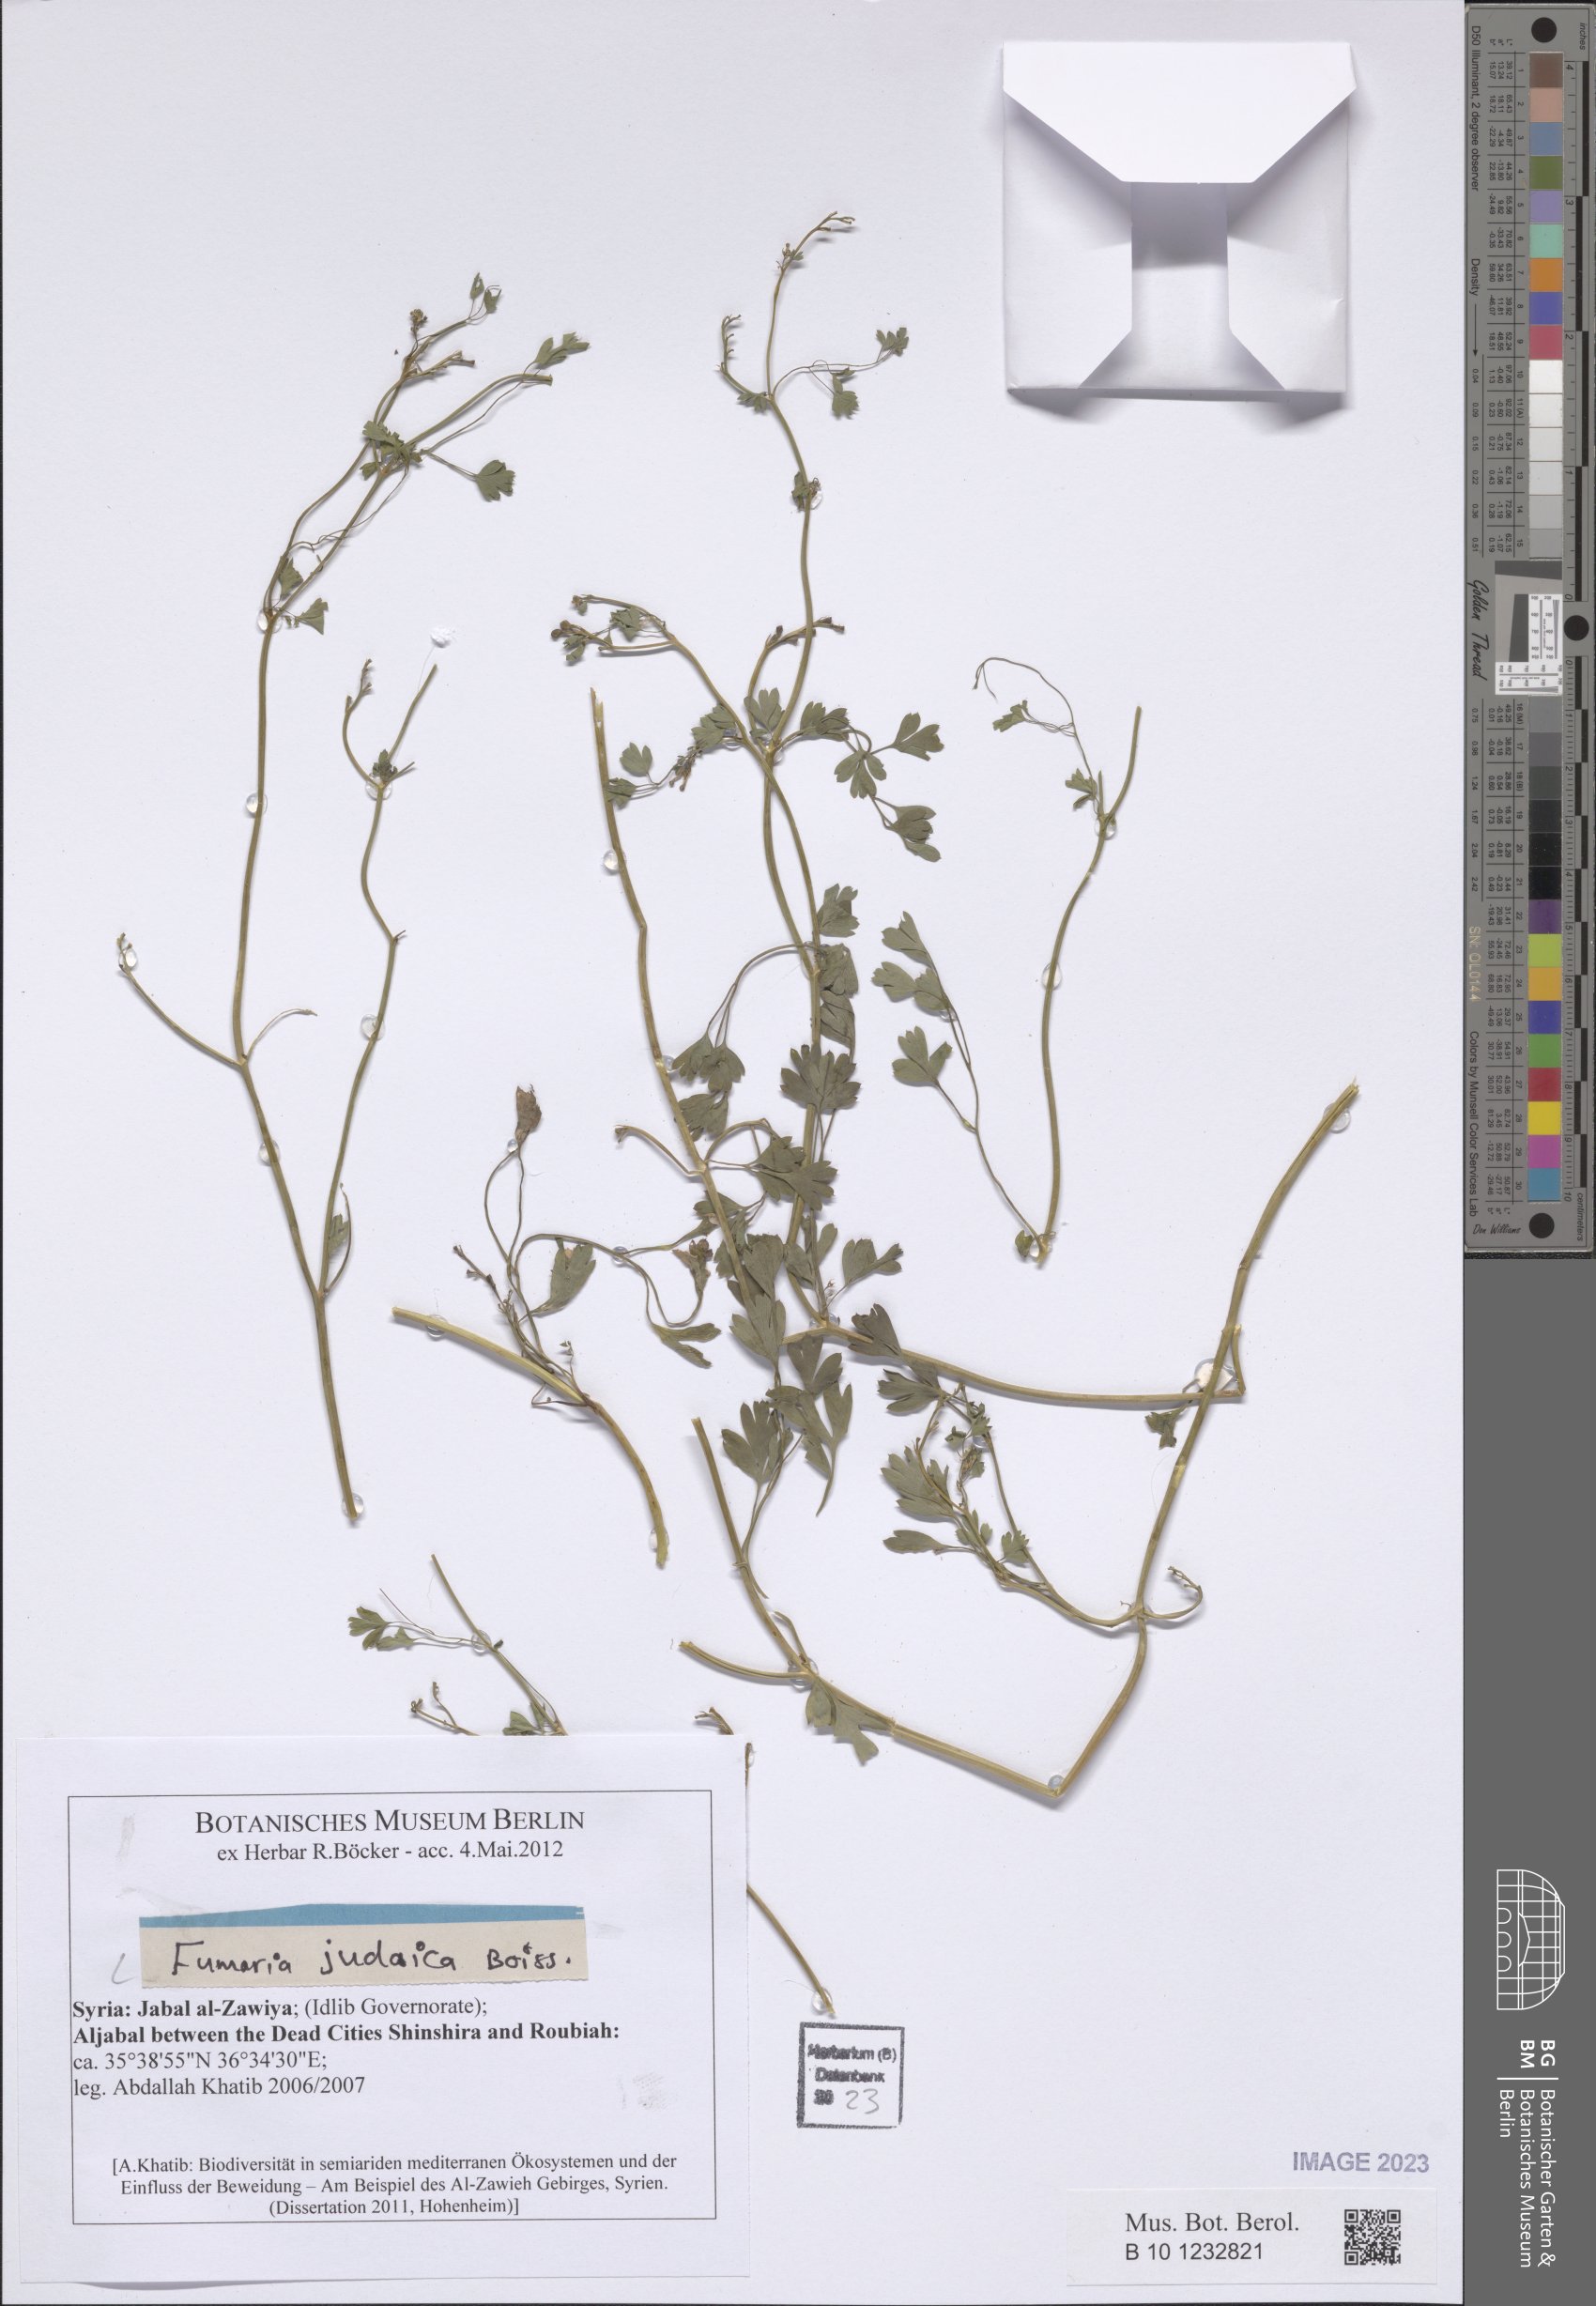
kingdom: Plantae
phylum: Tracheophyta
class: Magnoliopsida
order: Ranunculales
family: Papaveraceae
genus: Fumaria
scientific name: Fumaria judaica
